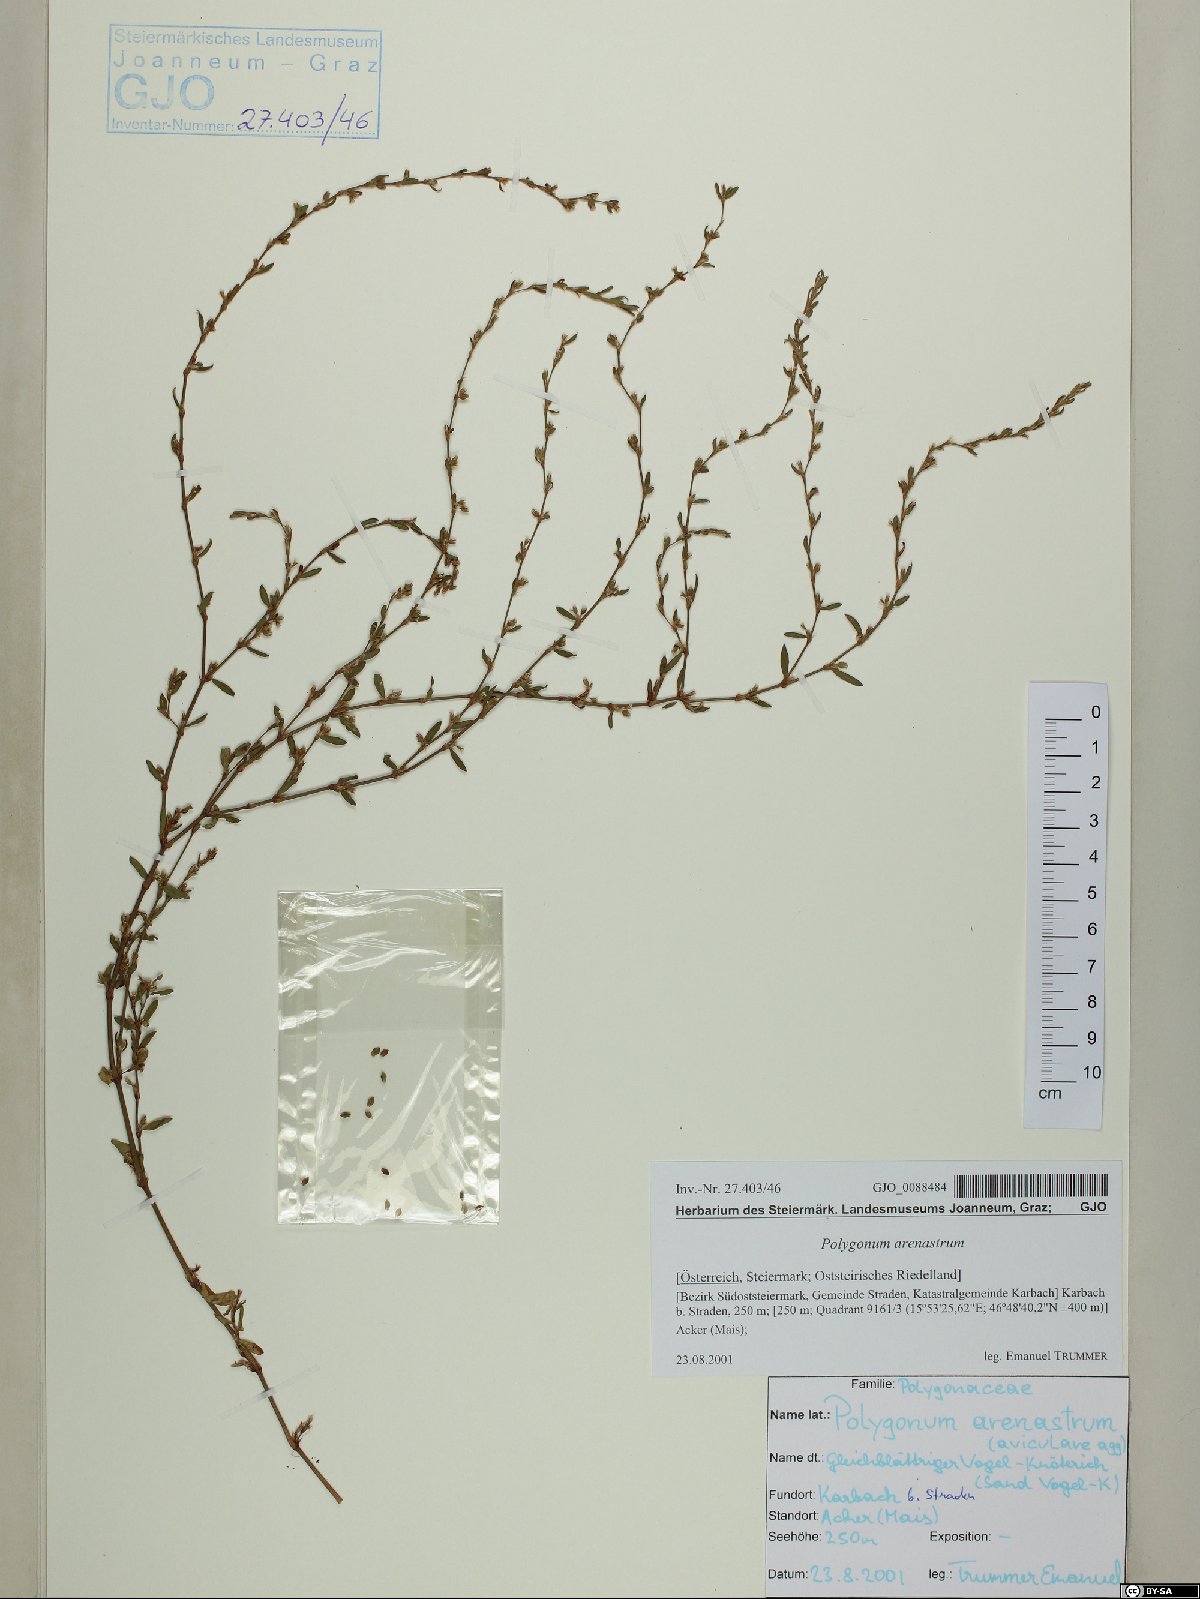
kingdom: Plantae
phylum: Tracheophyta
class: Magnoliopsida
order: Caryophyllales
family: Polygonaceae
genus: Polygonum
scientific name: Polygonum arenastrum
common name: Equal-leaved knotgrass
